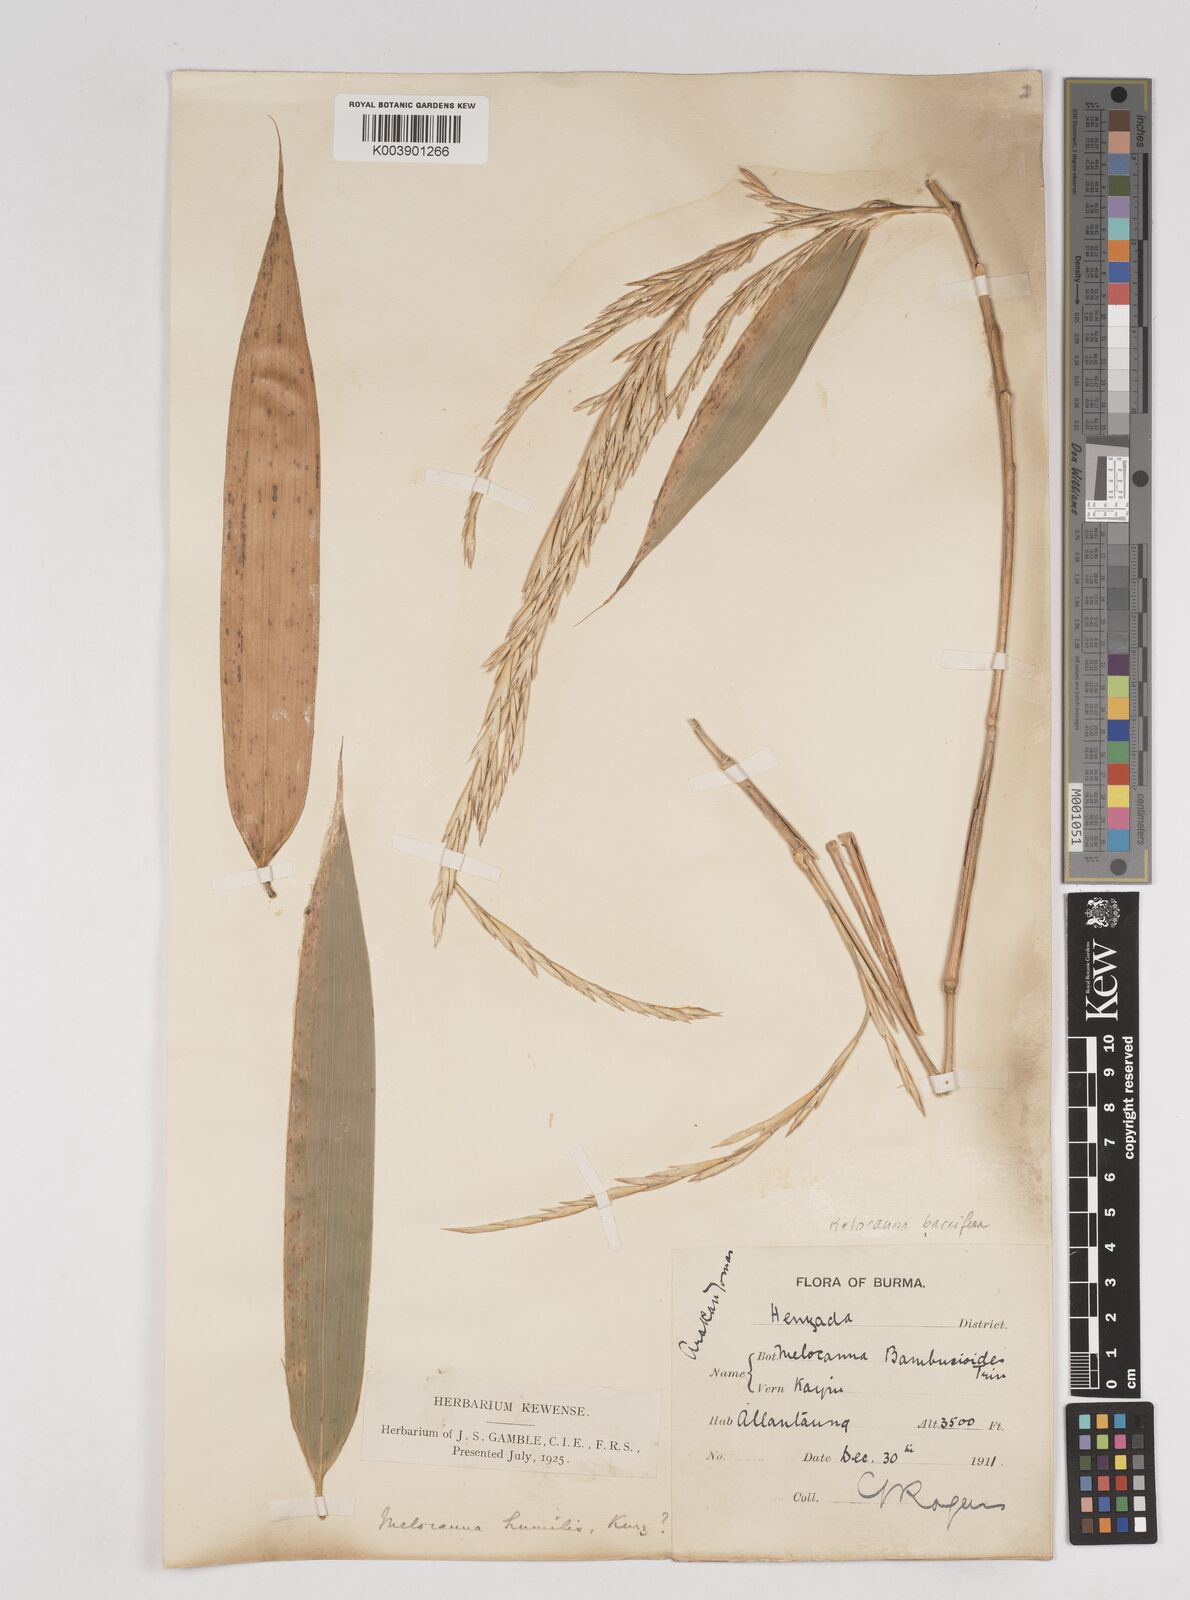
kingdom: Plantae
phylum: Tracheophyta
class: Liliopsida
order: Poales
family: Poaceae
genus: Melocanna
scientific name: Melocanna baccifera
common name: Berry bamboo
